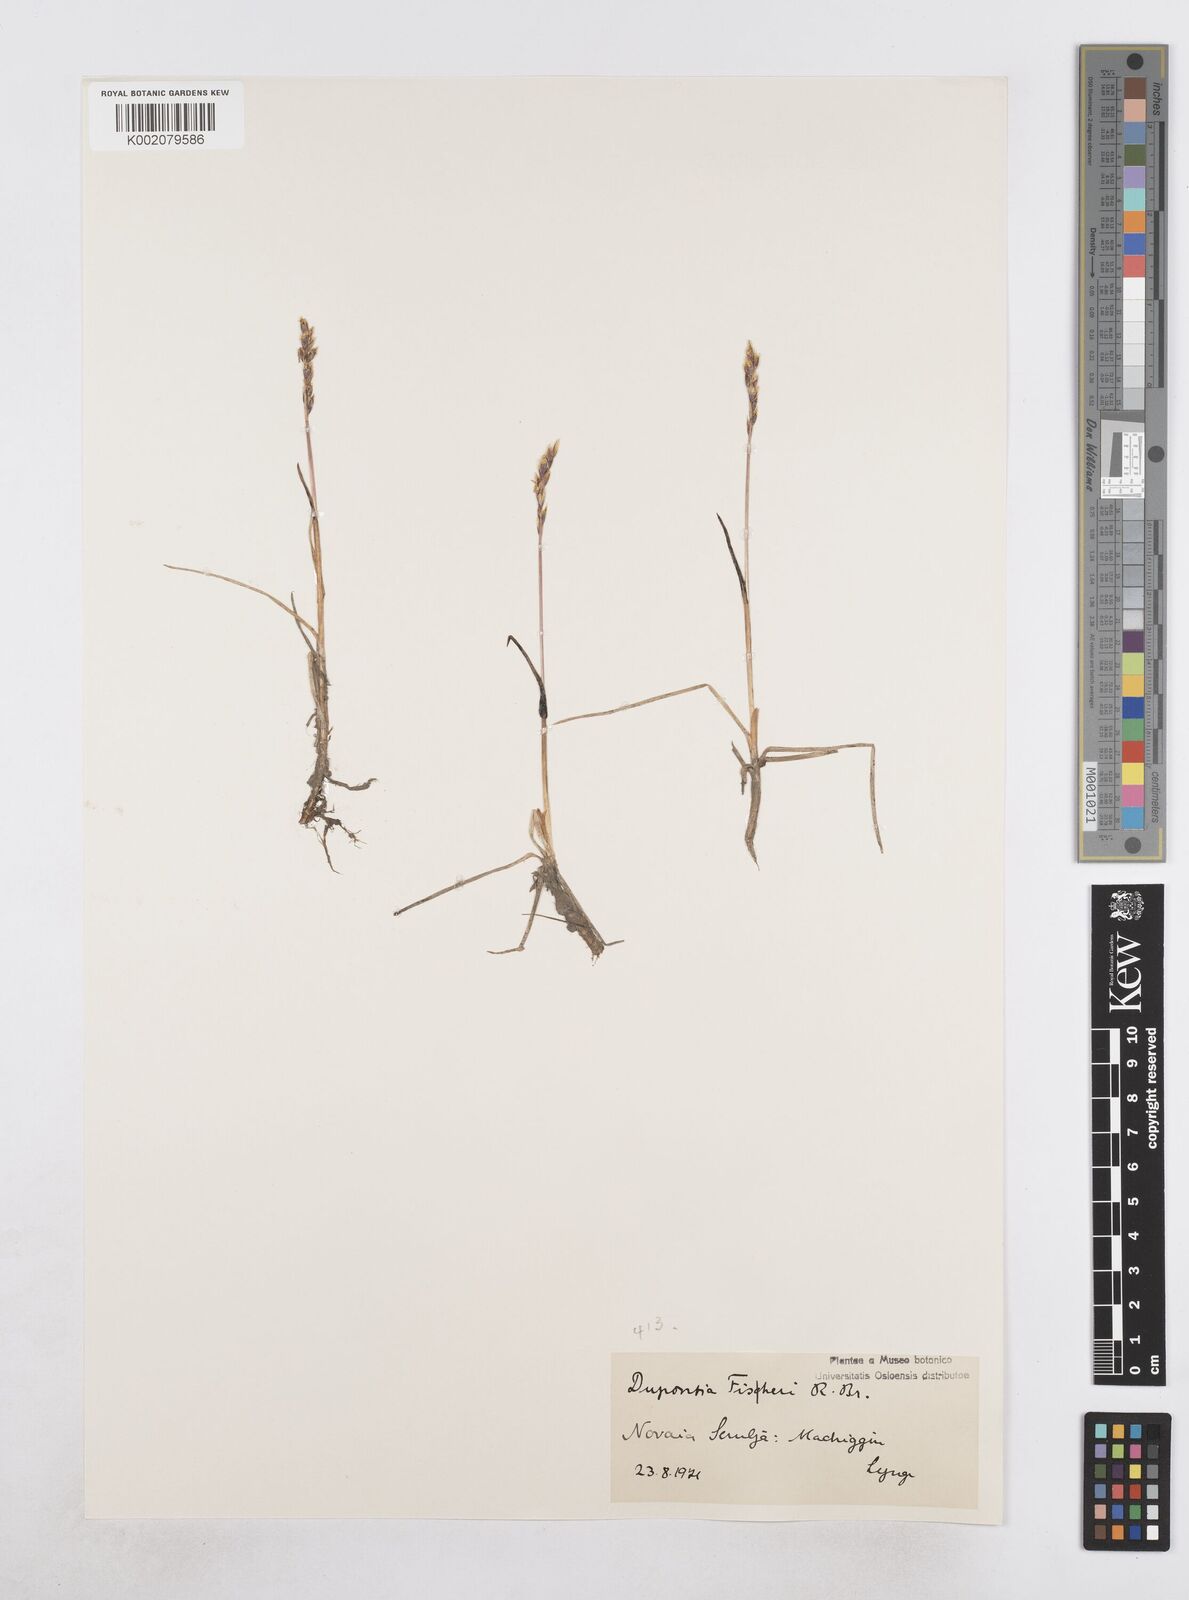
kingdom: Plantae
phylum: Tracheophyta
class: Liliopsida
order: Poales
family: Poaceae
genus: Dupontia
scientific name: Dupontia fisheri
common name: Tundra grass
